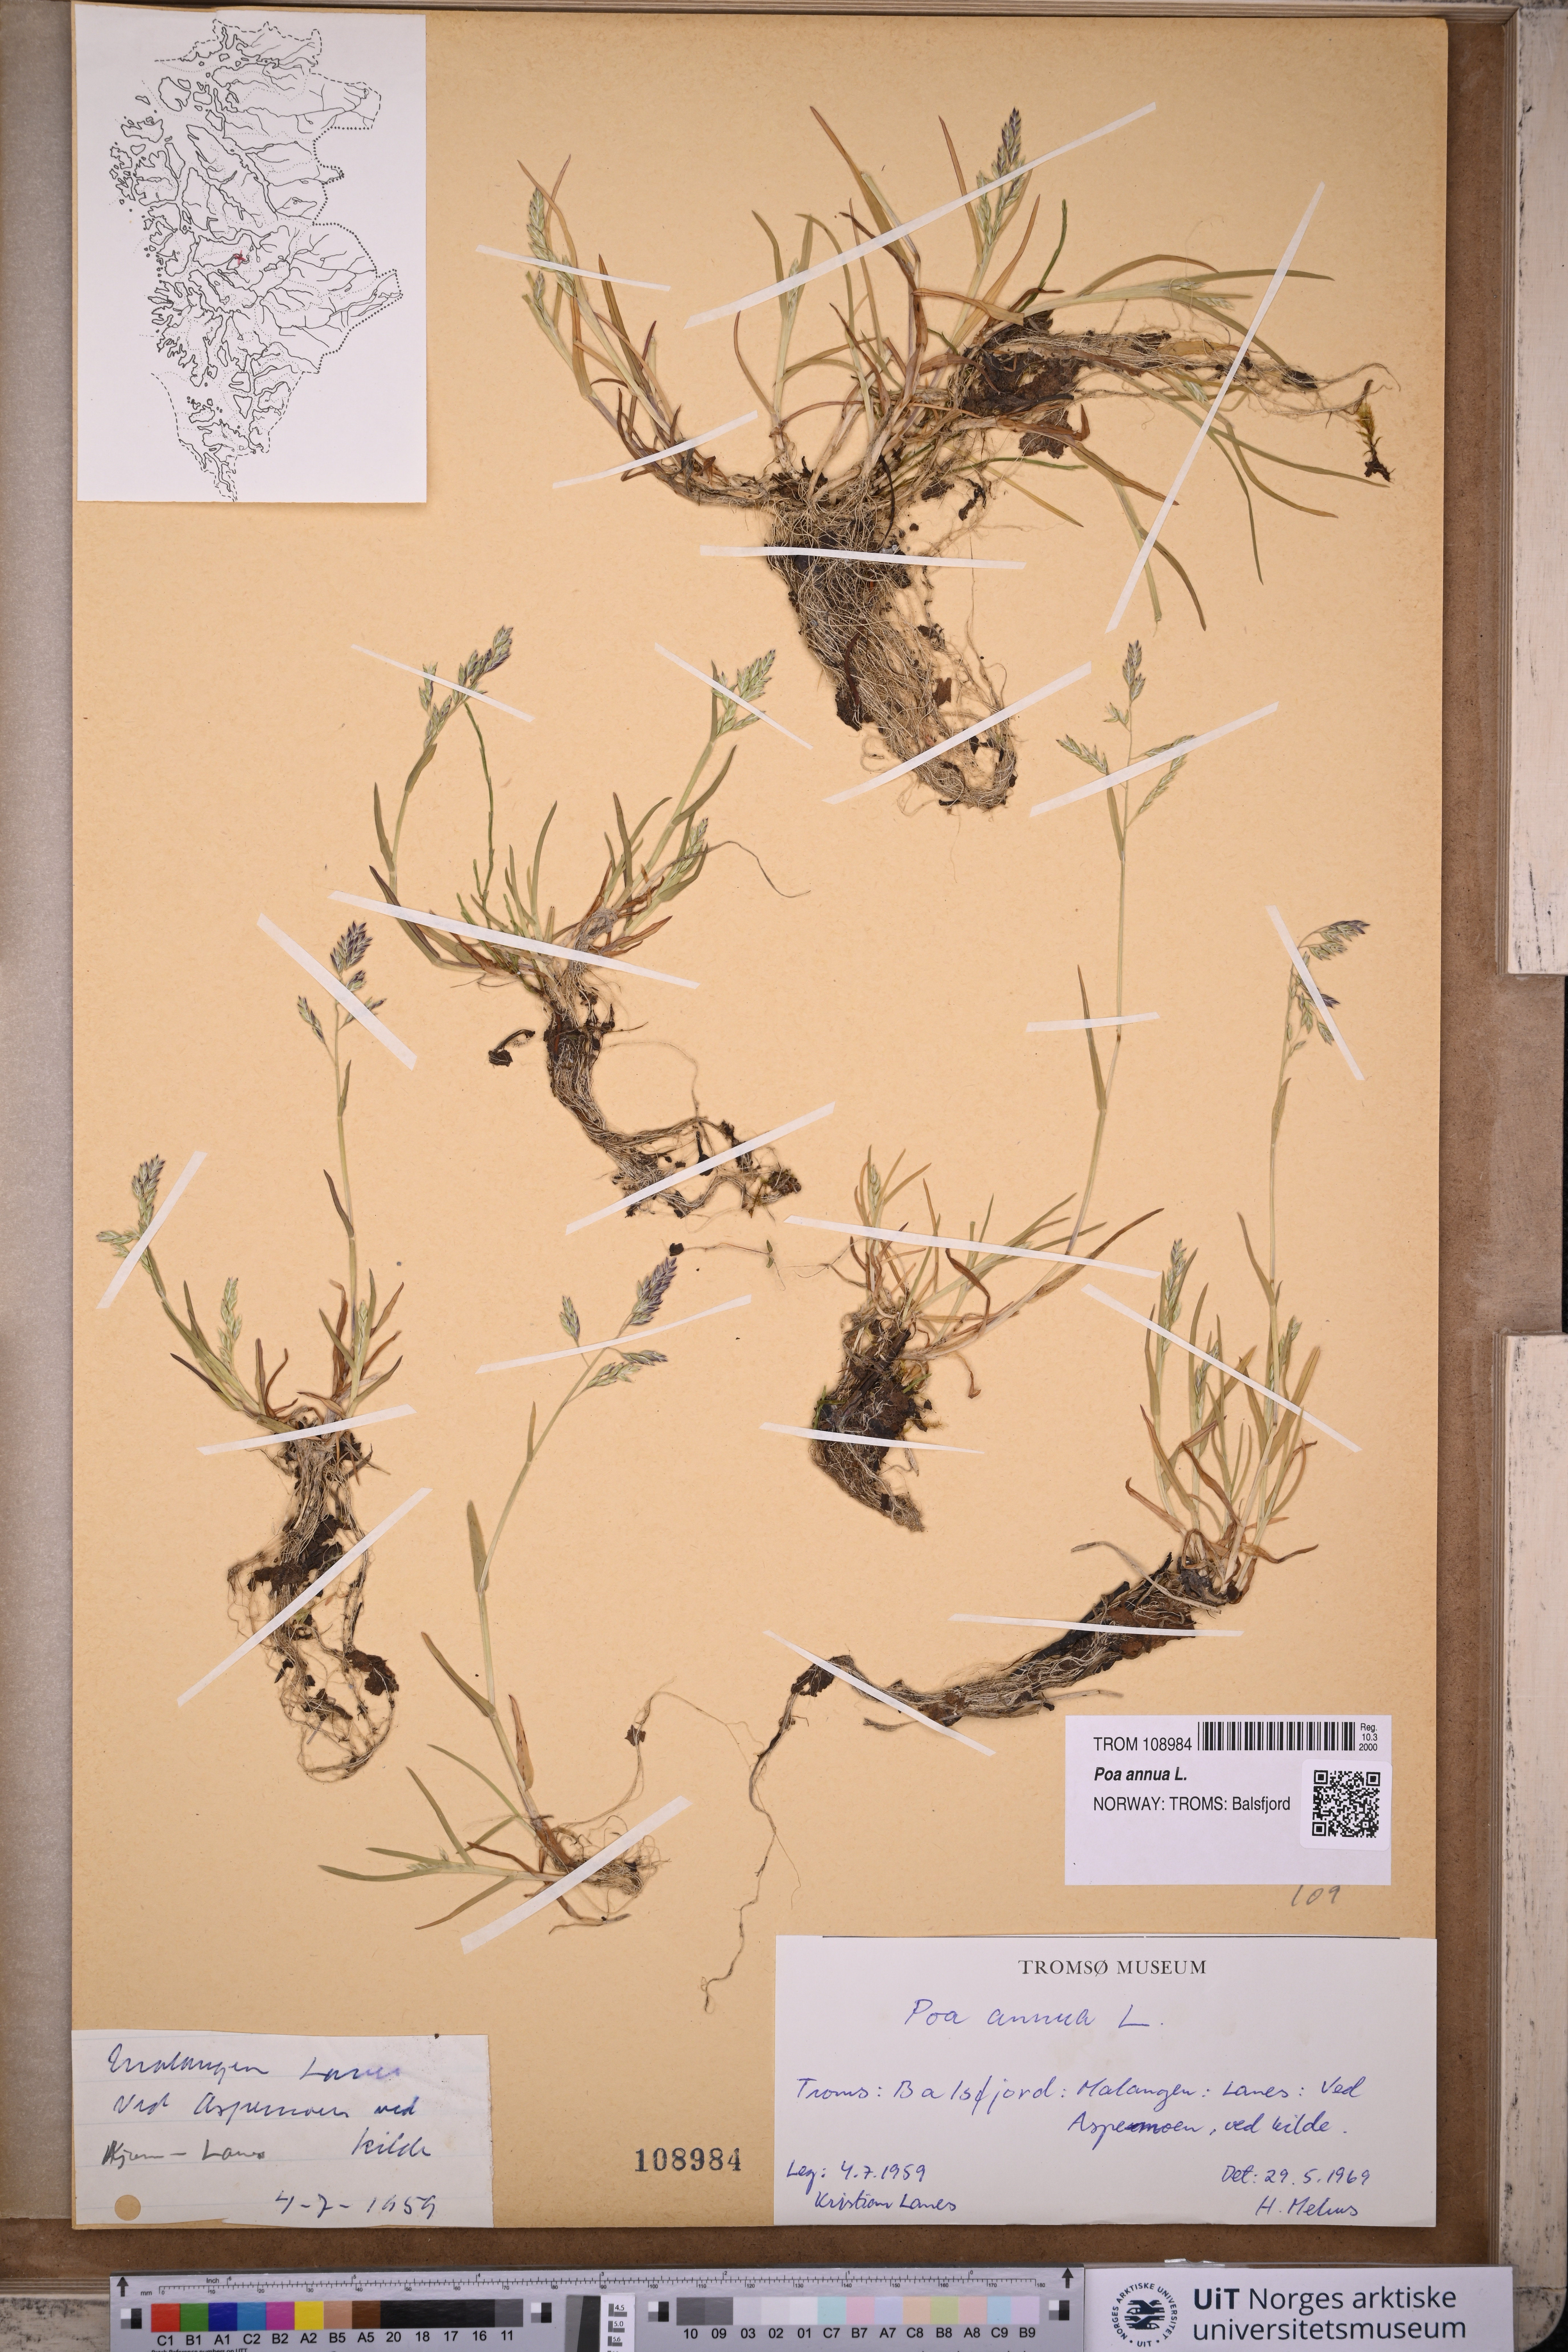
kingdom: Plantae
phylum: Tracheophyta
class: Liliopsida
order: Poales
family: Poaceae
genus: Poa
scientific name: Poa annua
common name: Annual bluegrass
